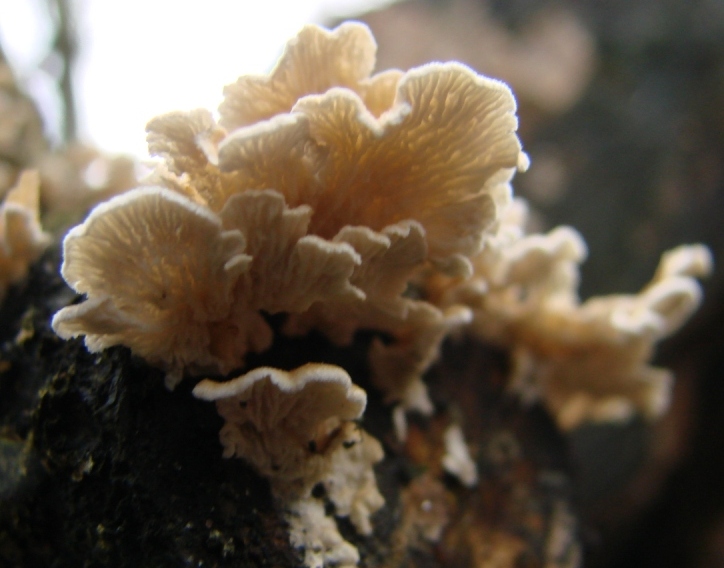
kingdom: Fungi
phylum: Basidiomycota
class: Agaricomycetes
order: Amylocorticiales
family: Amylocorticiaceae
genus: Plicaturopsis
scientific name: Plicaturopsis crispa
